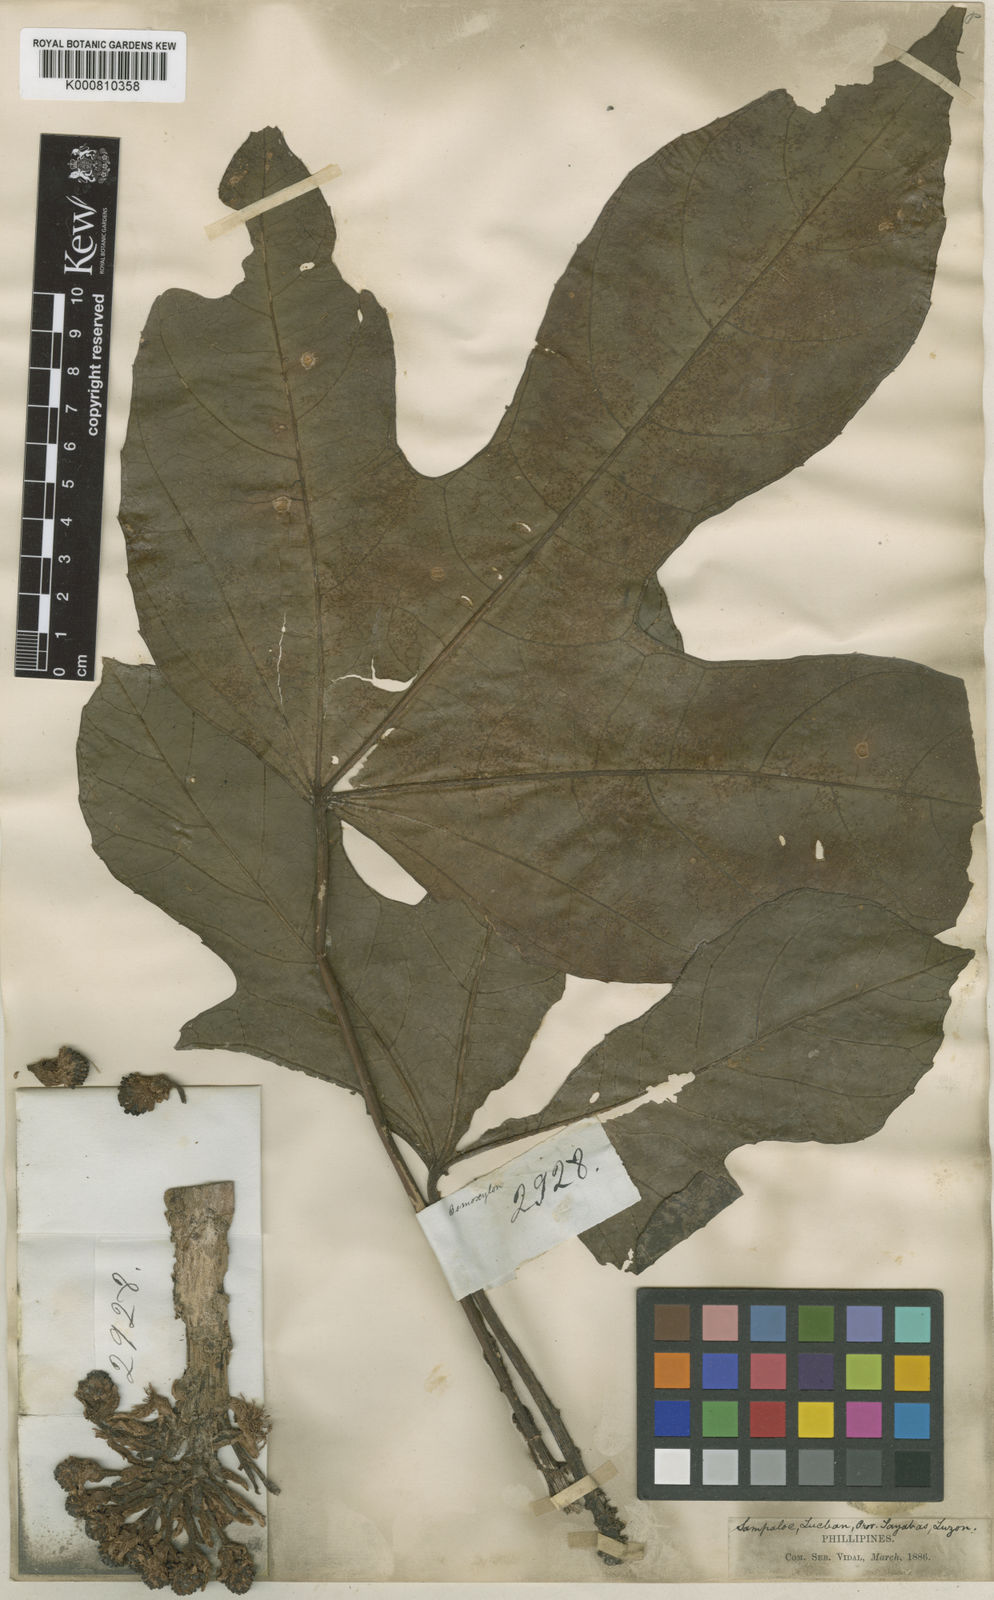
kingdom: Plantae
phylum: Tracheophyta
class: Magnoliopsida
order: Apiales
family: Araliaceae
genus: Osmoxylon
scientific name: Osmoxylon pulcherrimum
